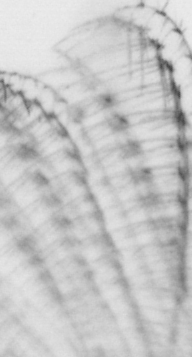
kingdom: Animalia
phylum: Arthropoda
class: Maxillopoda
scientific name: Maxillopoda
